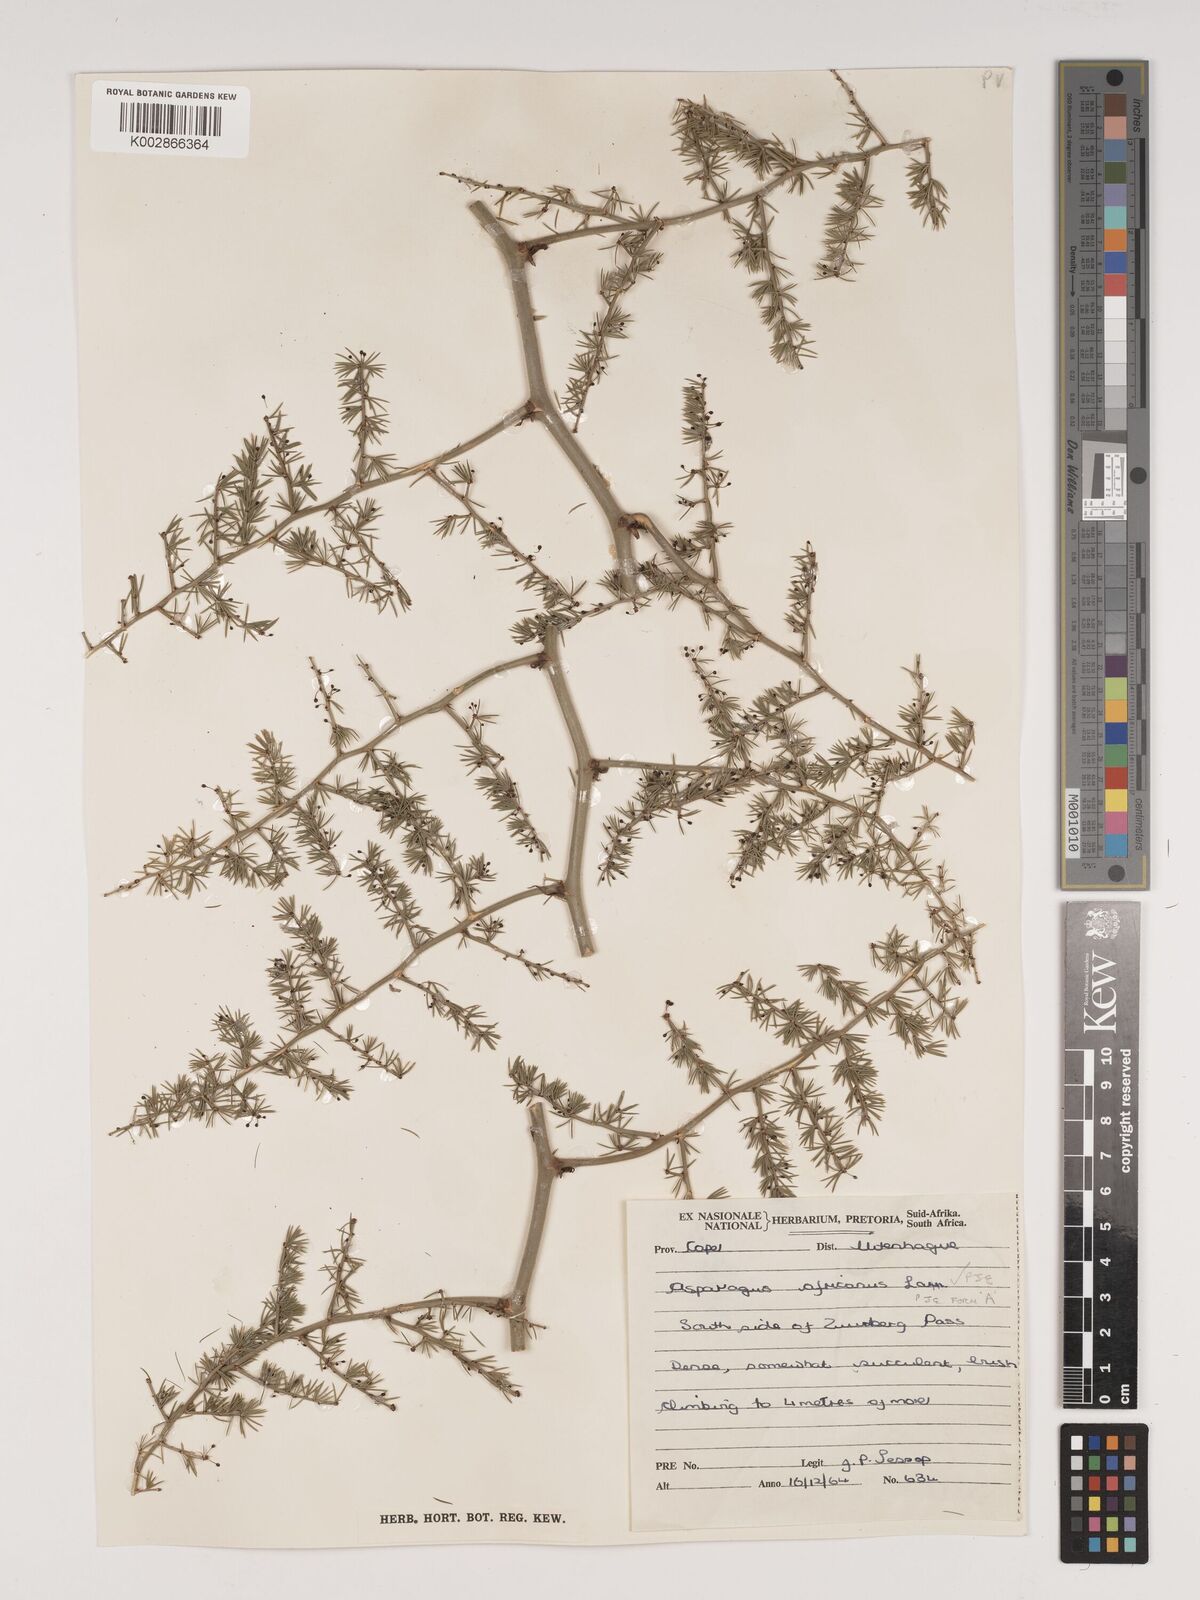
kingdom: Plantae
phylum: Tracheophyta
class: Liliopsida
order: Asparagales
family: Asparagaceae
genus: Asparagus
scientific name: Asparagus africanus
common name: Asparagus-fern
